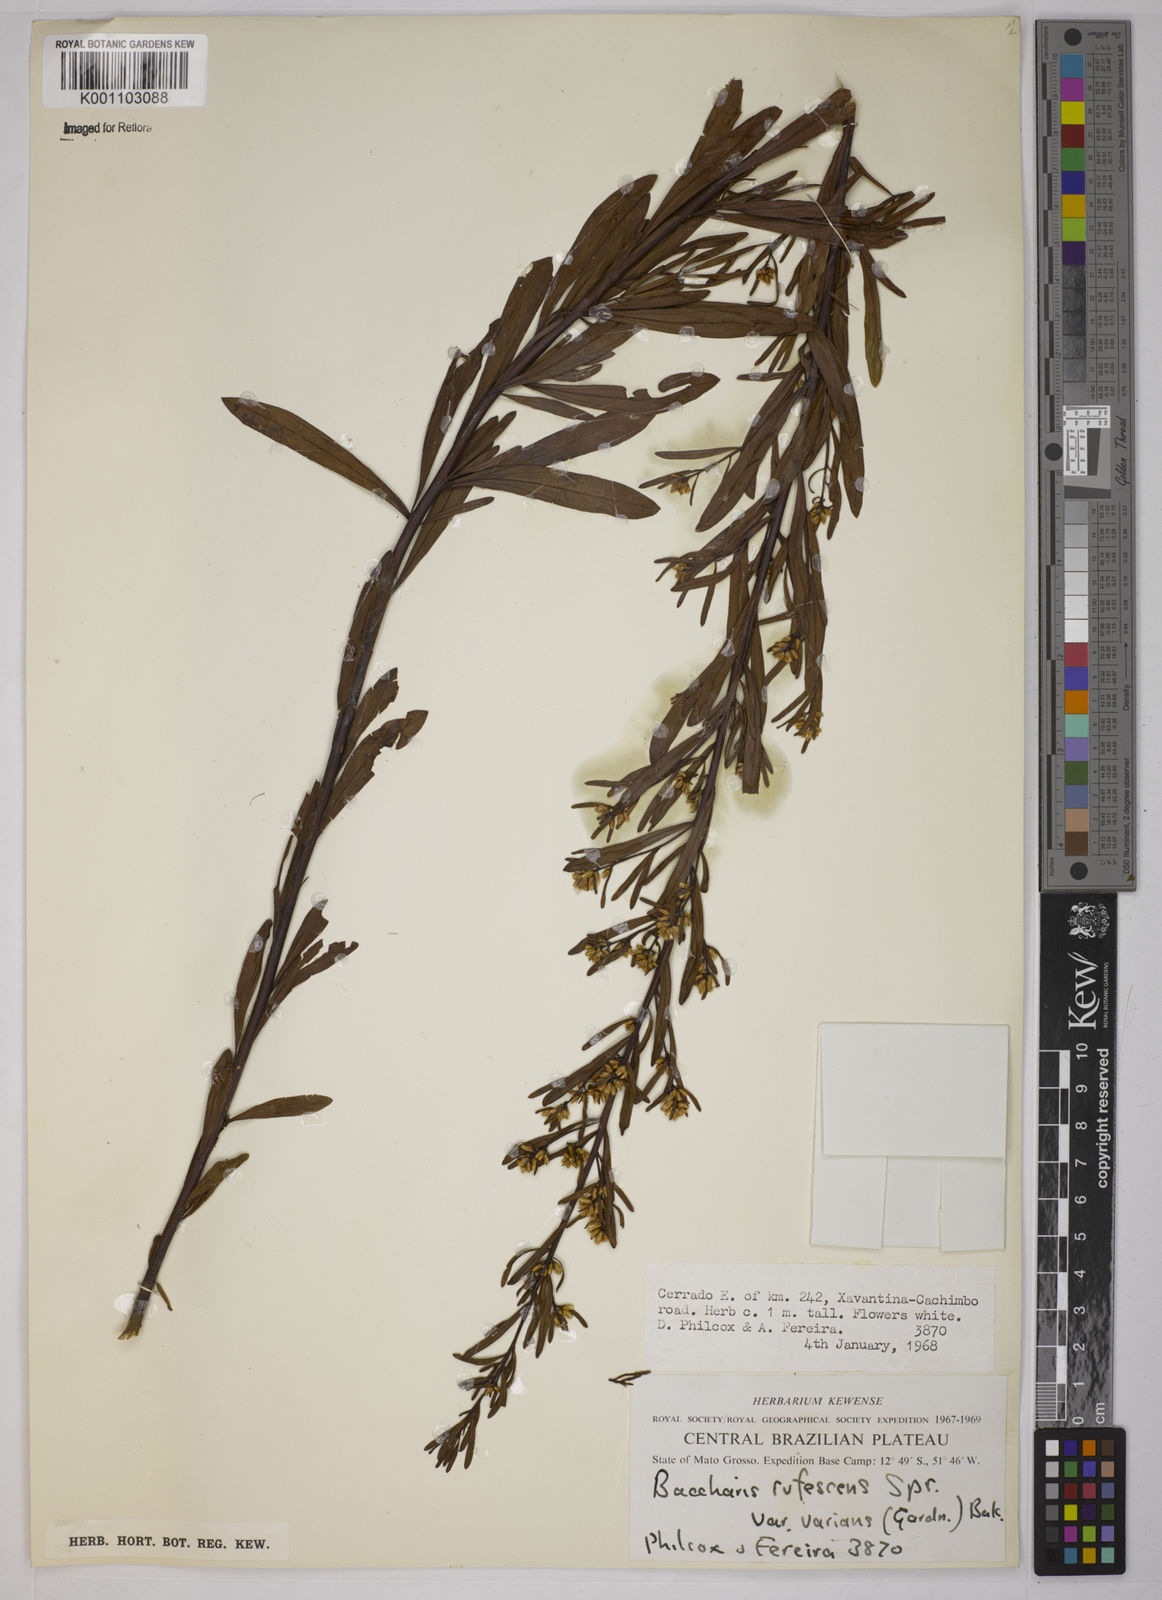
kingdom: Plantae
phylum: Tracheophyta
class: Magnoliopsida
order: Asterales
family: Asteraceae
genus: Baccharis
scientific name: Baccharis varians
